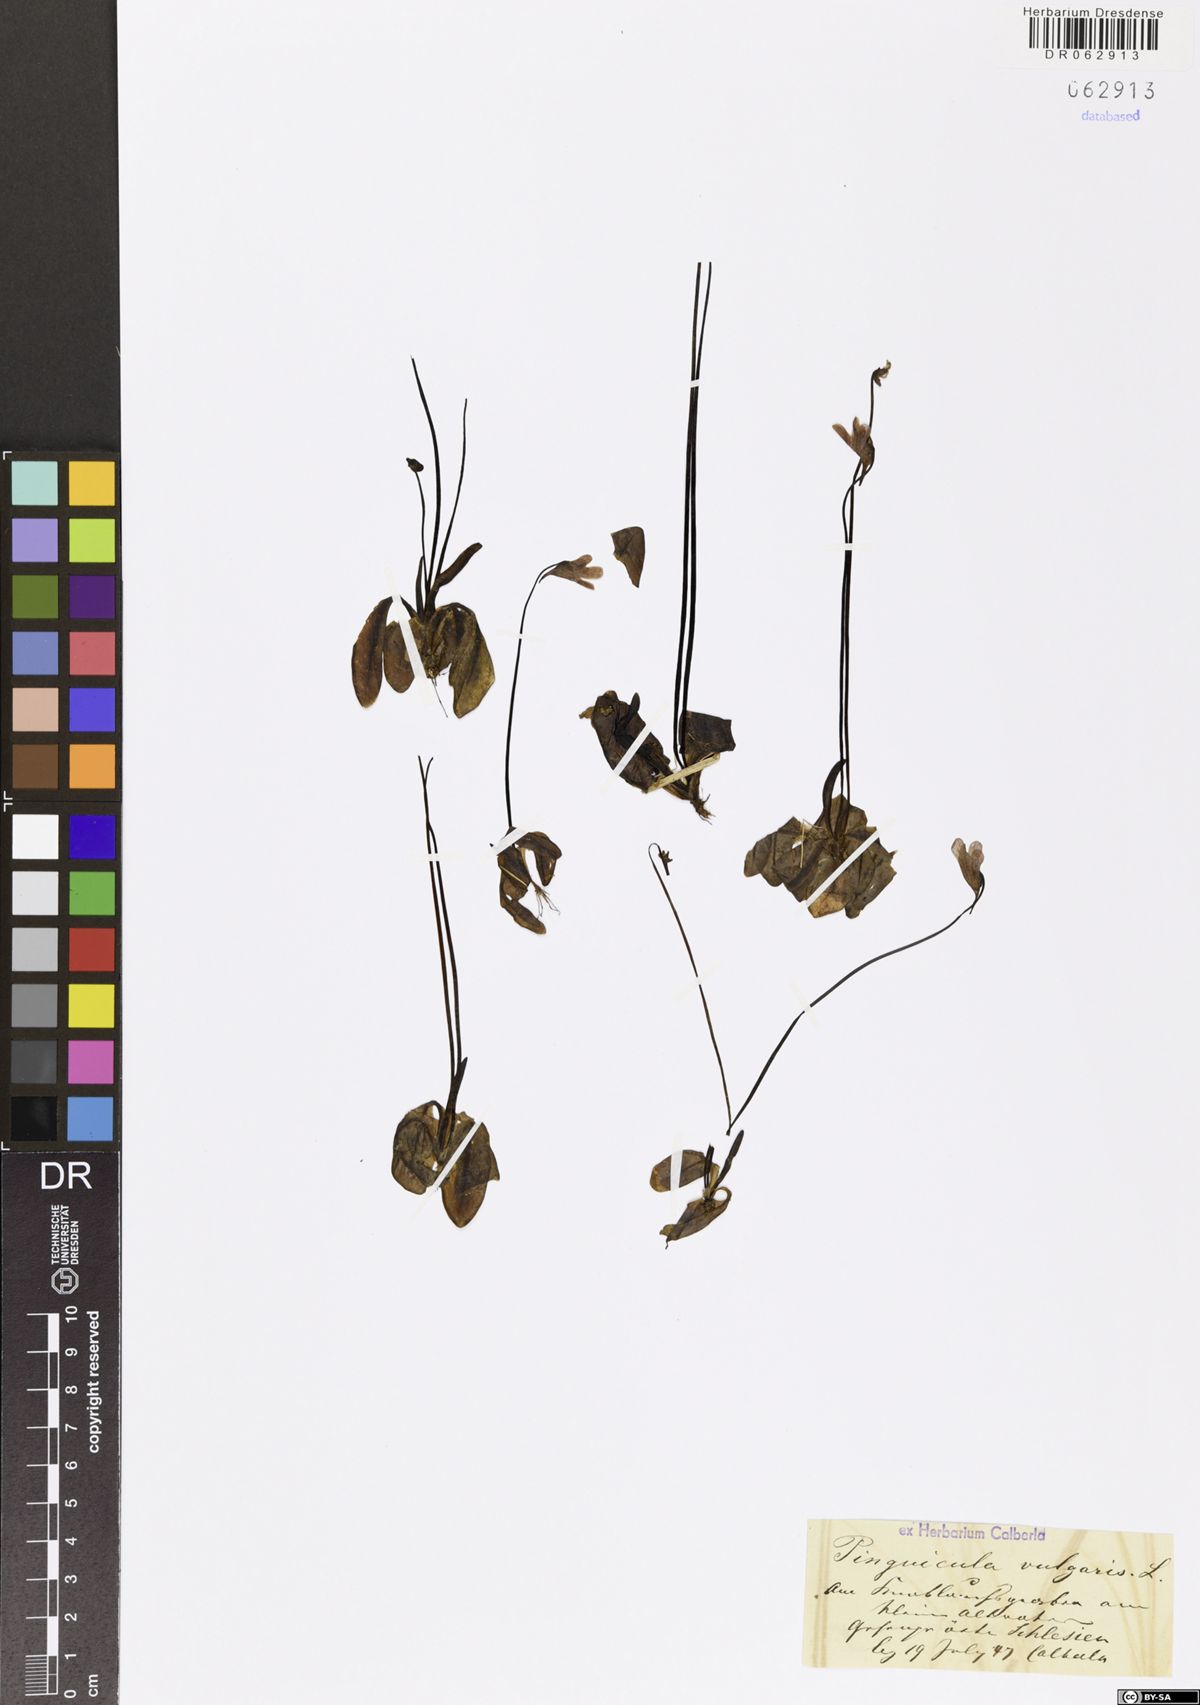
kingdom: Plantae
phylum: Tracheophyta
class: Magnoliopsida
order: Lamiales
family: Lentibulariaceae
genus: Pinguicula
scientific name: Pinguicula vulgaris
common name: Common butterwort
